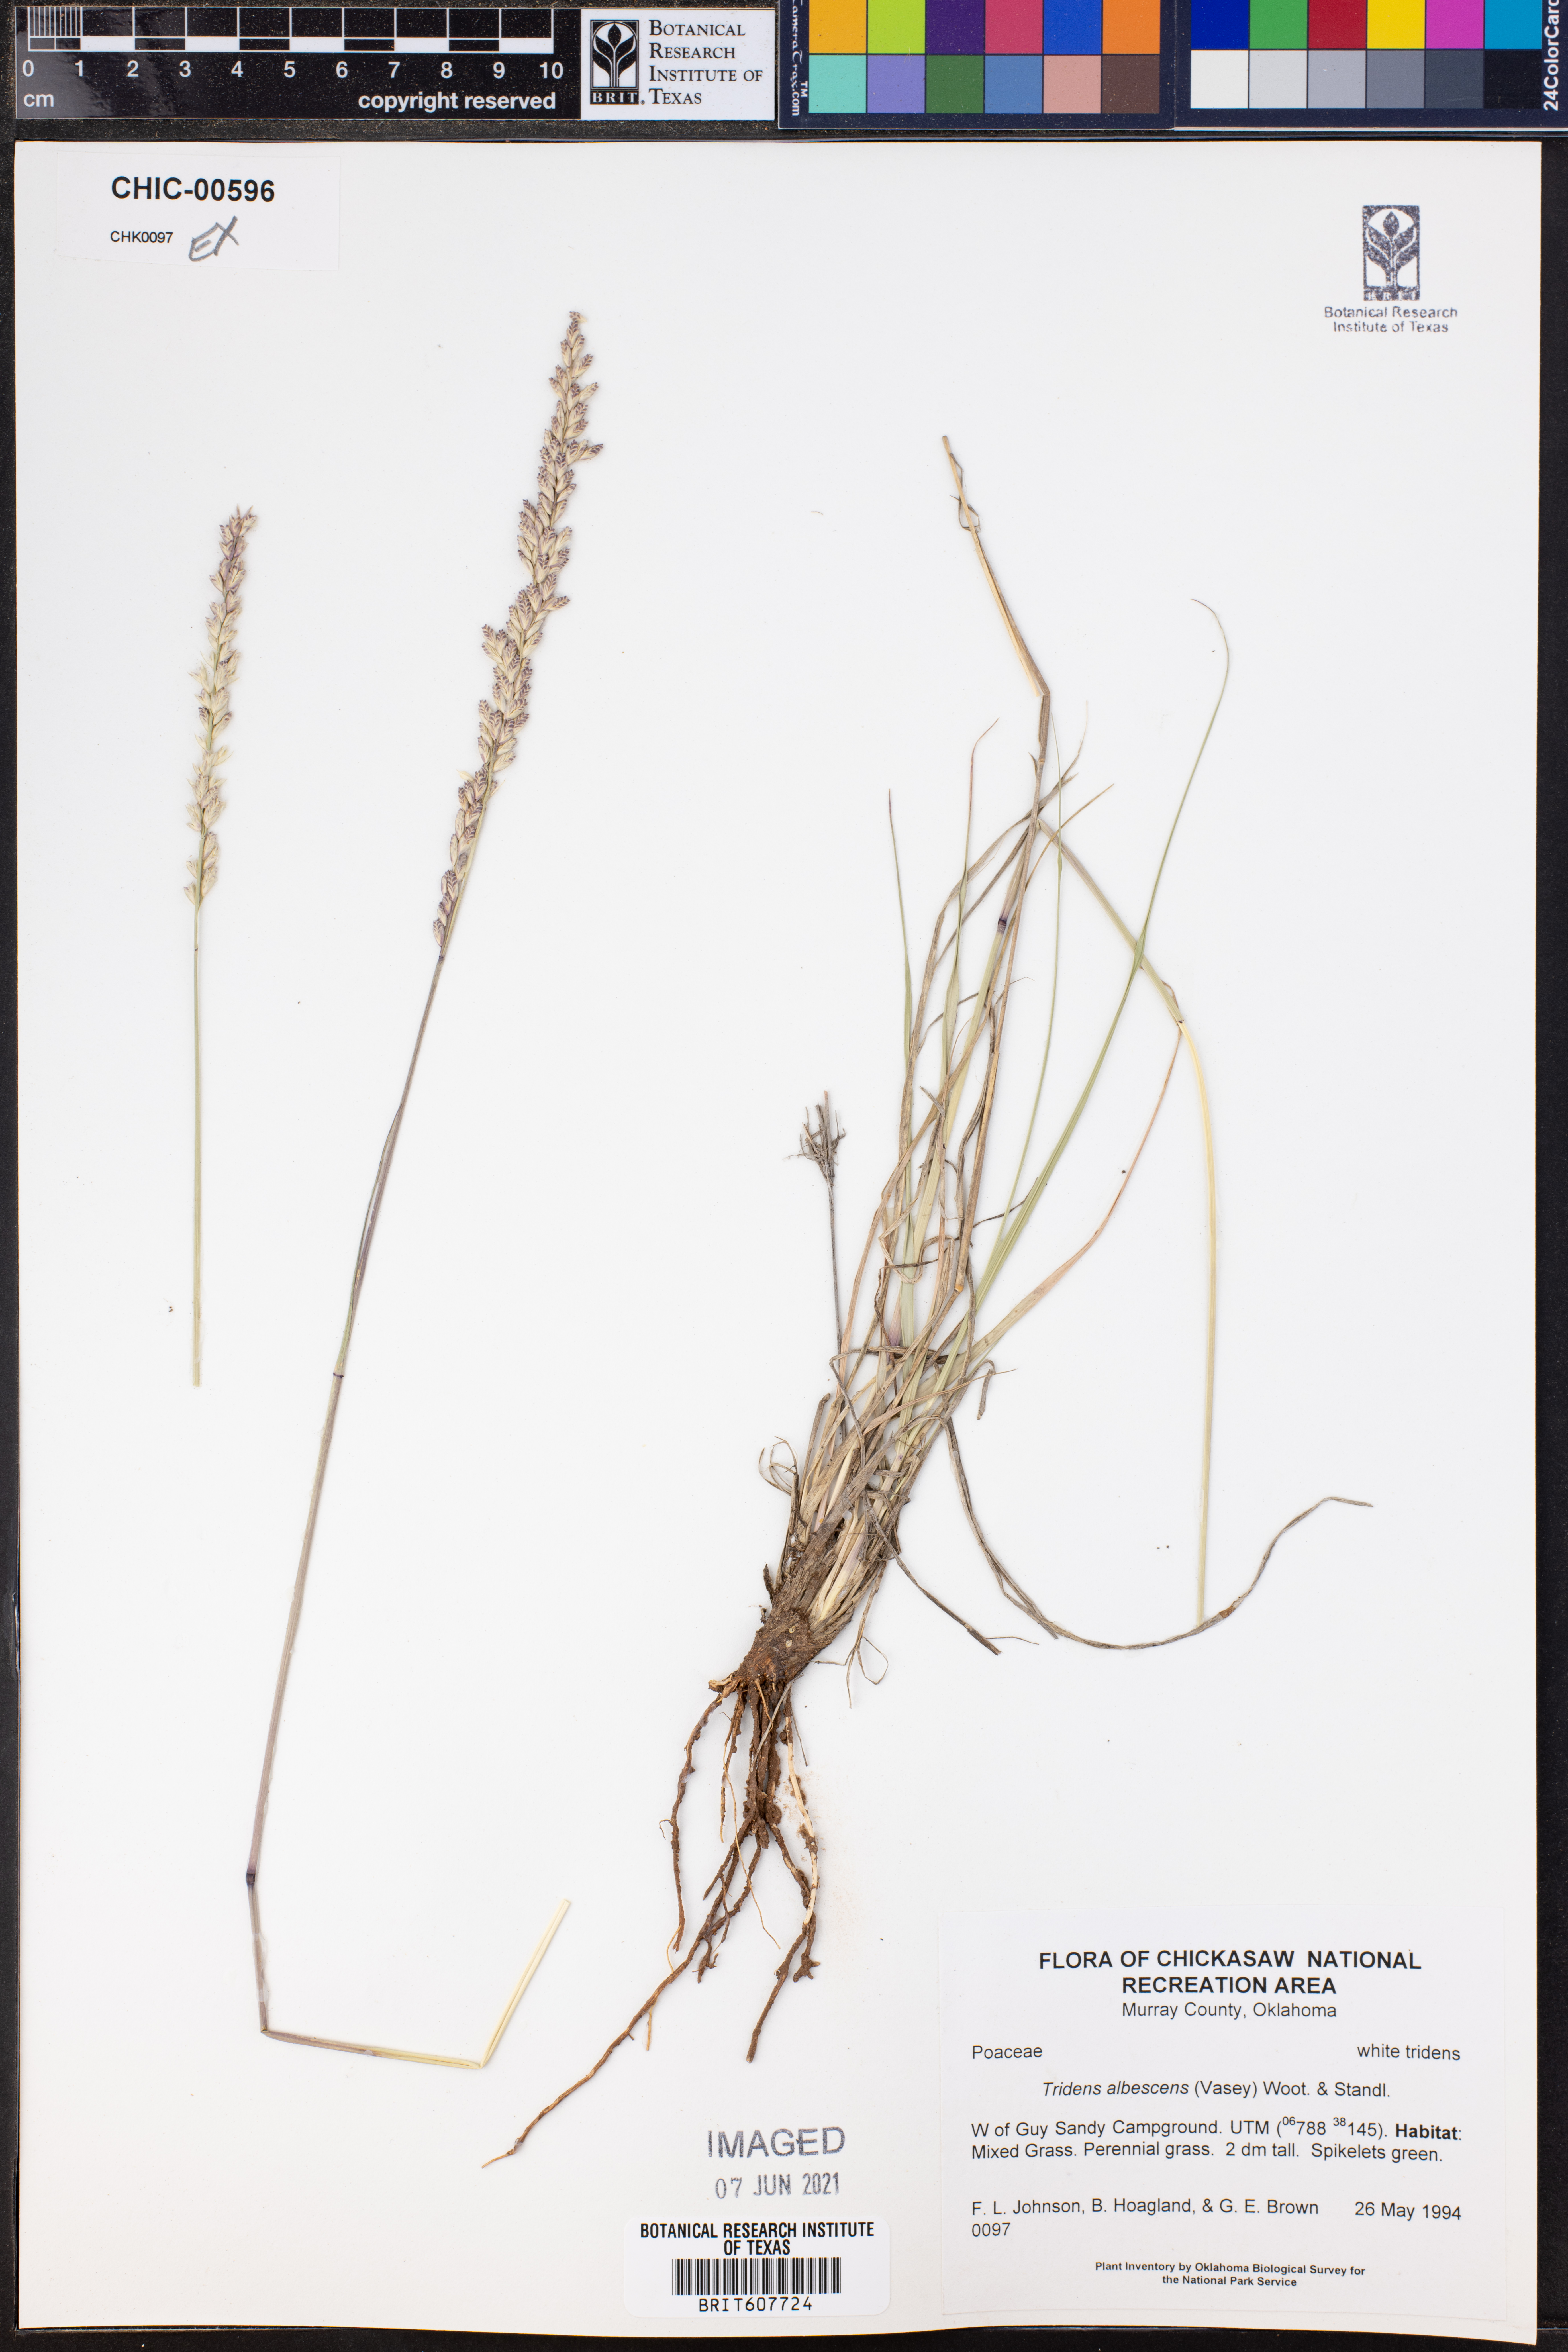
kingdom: Plantae
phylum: Tracheophyta
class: Liliopsida
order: Poales
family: Poaceae
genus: Tridens
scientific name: Tridens albescens
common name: White tridens
